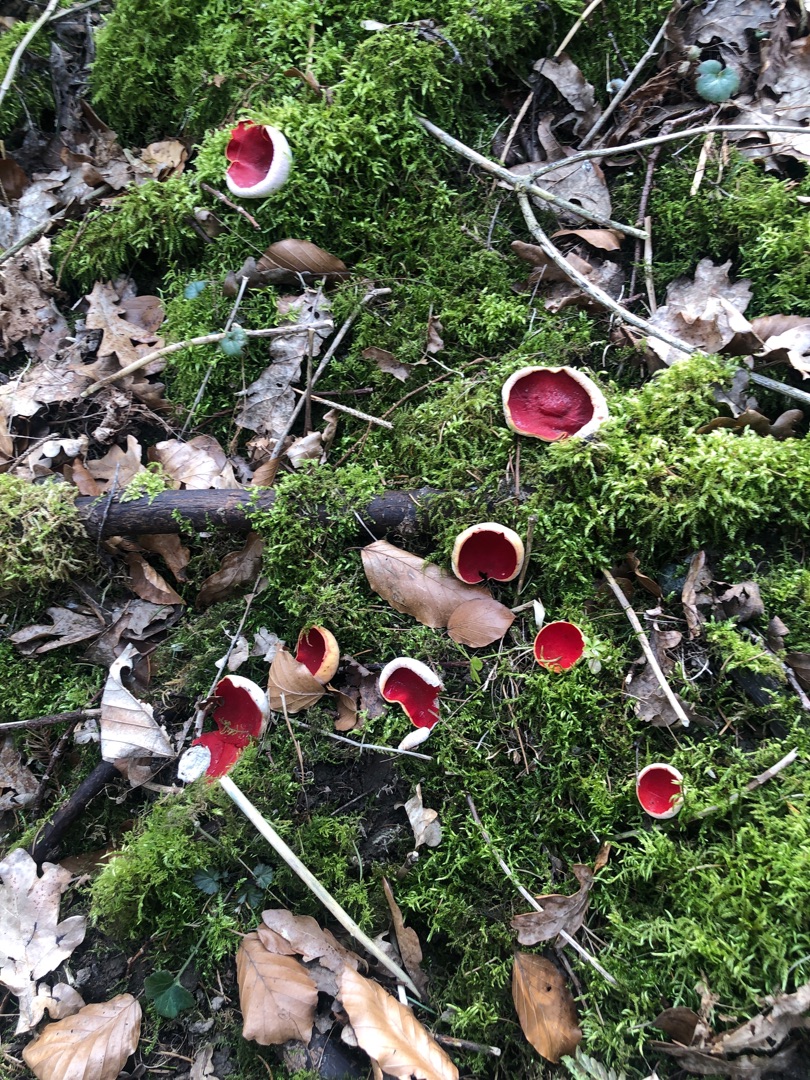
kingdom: Fungi
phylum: Ascomycota
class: Pezizomycetes
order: Pezizales
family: Sarcoscyphaceae
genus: Sarcoscypha
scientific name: Sarcoscypha
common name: Pragtbæger
